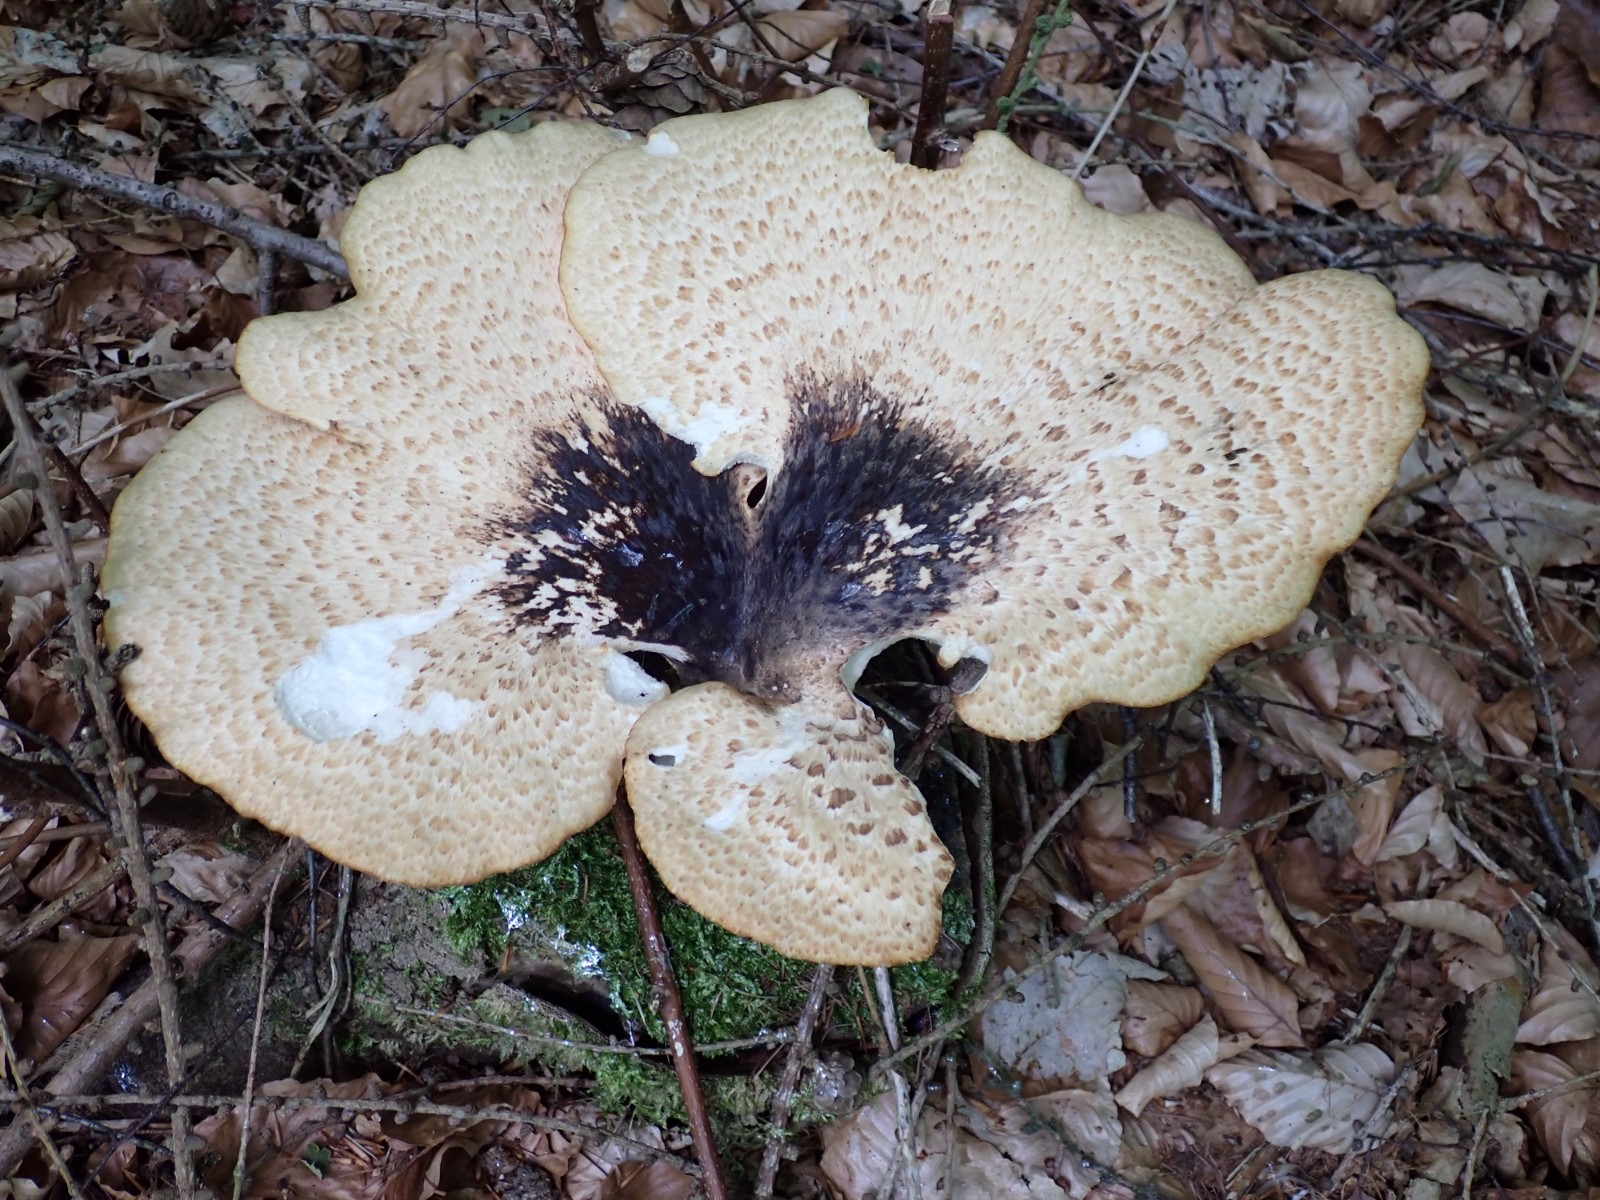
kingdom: Fungi
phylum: Basidiomycota
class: Agaricomycetes
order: Polyporales
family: Polyporaceae
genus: Cerioporus
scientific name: Cerioporus squamosus
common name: skællet stilkporesvamp
